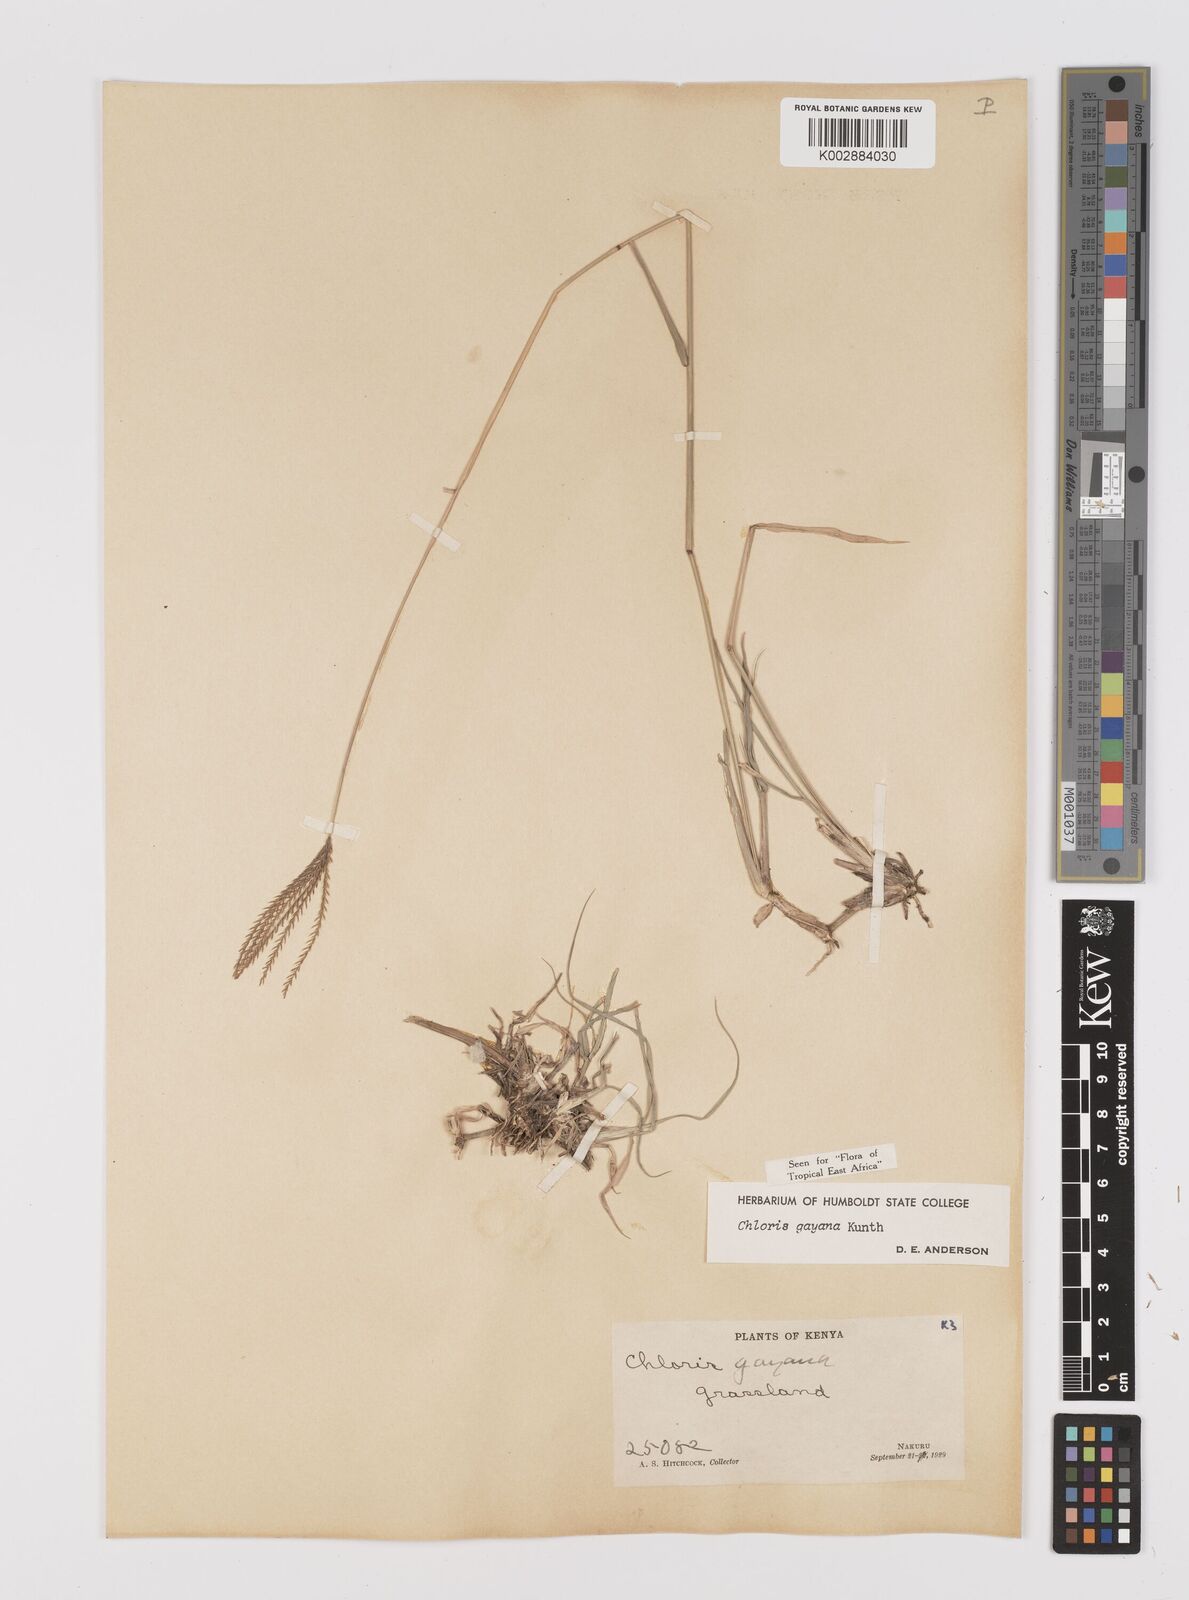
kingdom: Plantae
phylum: Tracheophyta
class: Liliopsida
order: Poales
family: Poaceae
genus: Chloris
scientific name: Chloris gayana
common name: Rhodes grass
